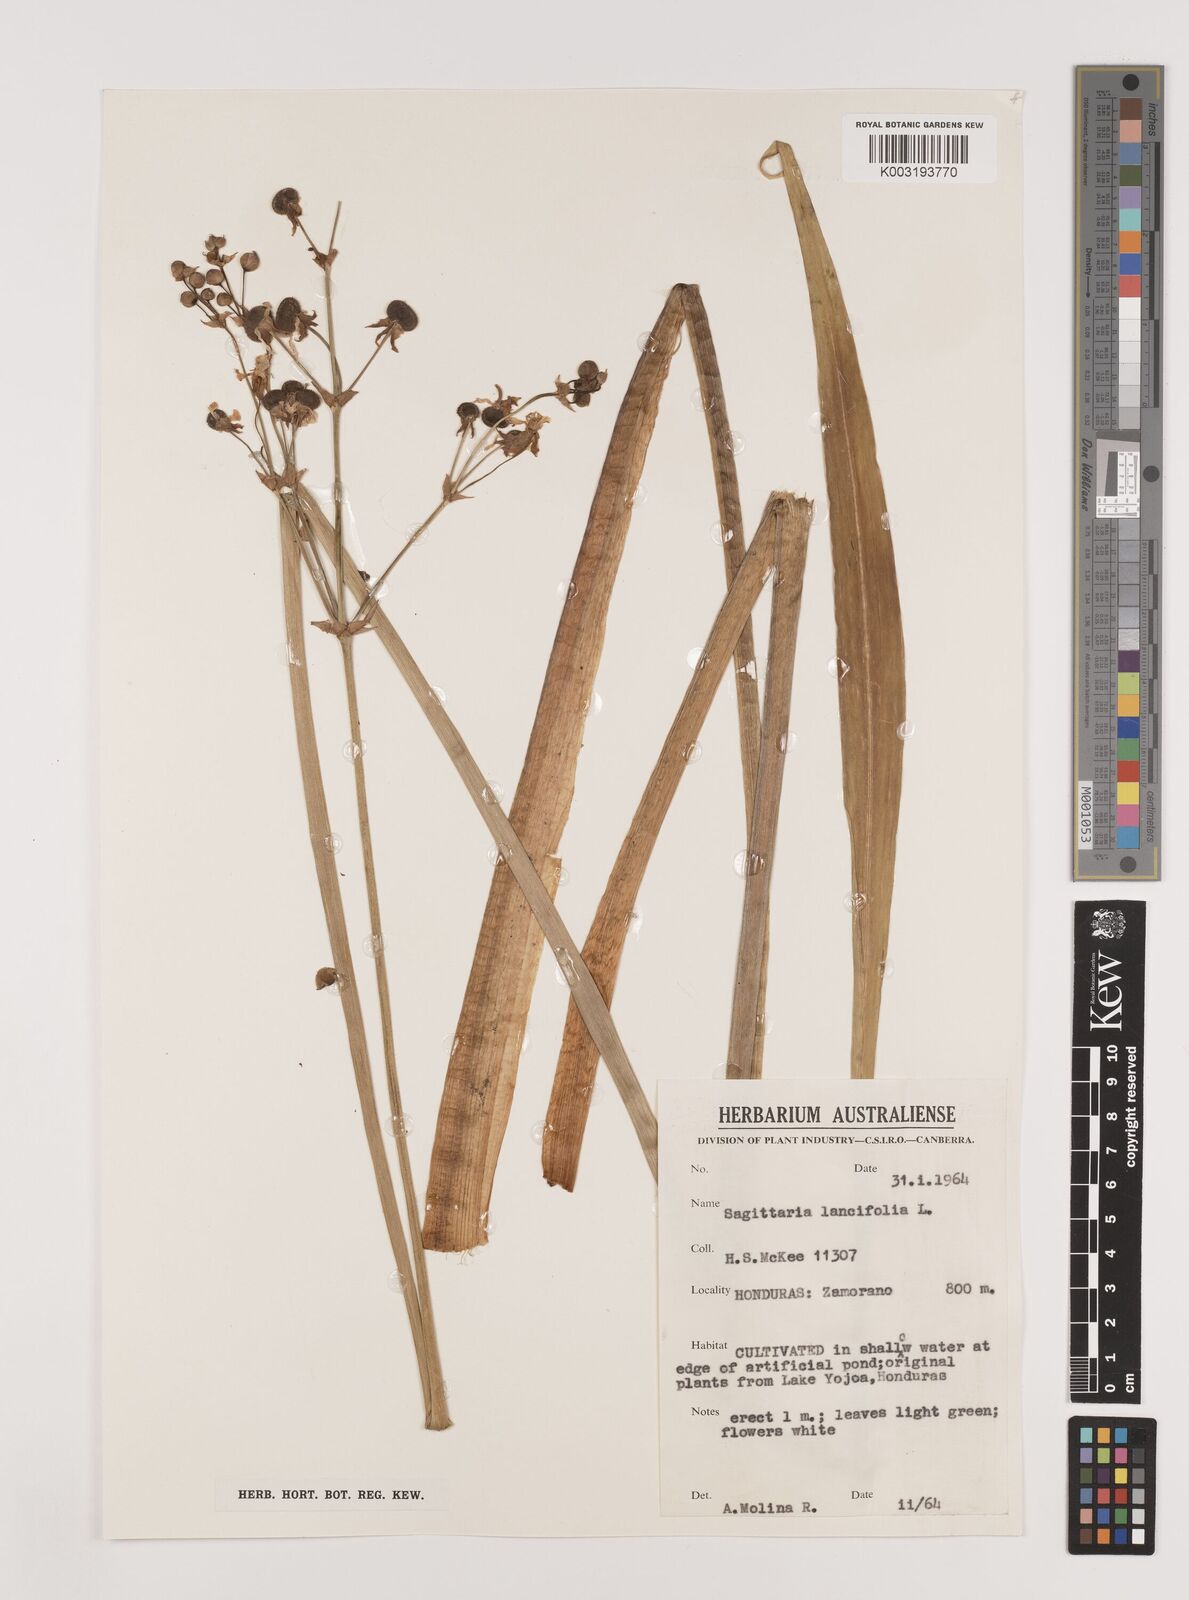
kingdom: Plantae
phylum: Tracheophyta
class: Liliopsida
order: Alismatales
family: Alismataceae
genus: Sagittaria
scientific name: Sagittaria lancifolia
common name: Lance-leaf arrowhead
